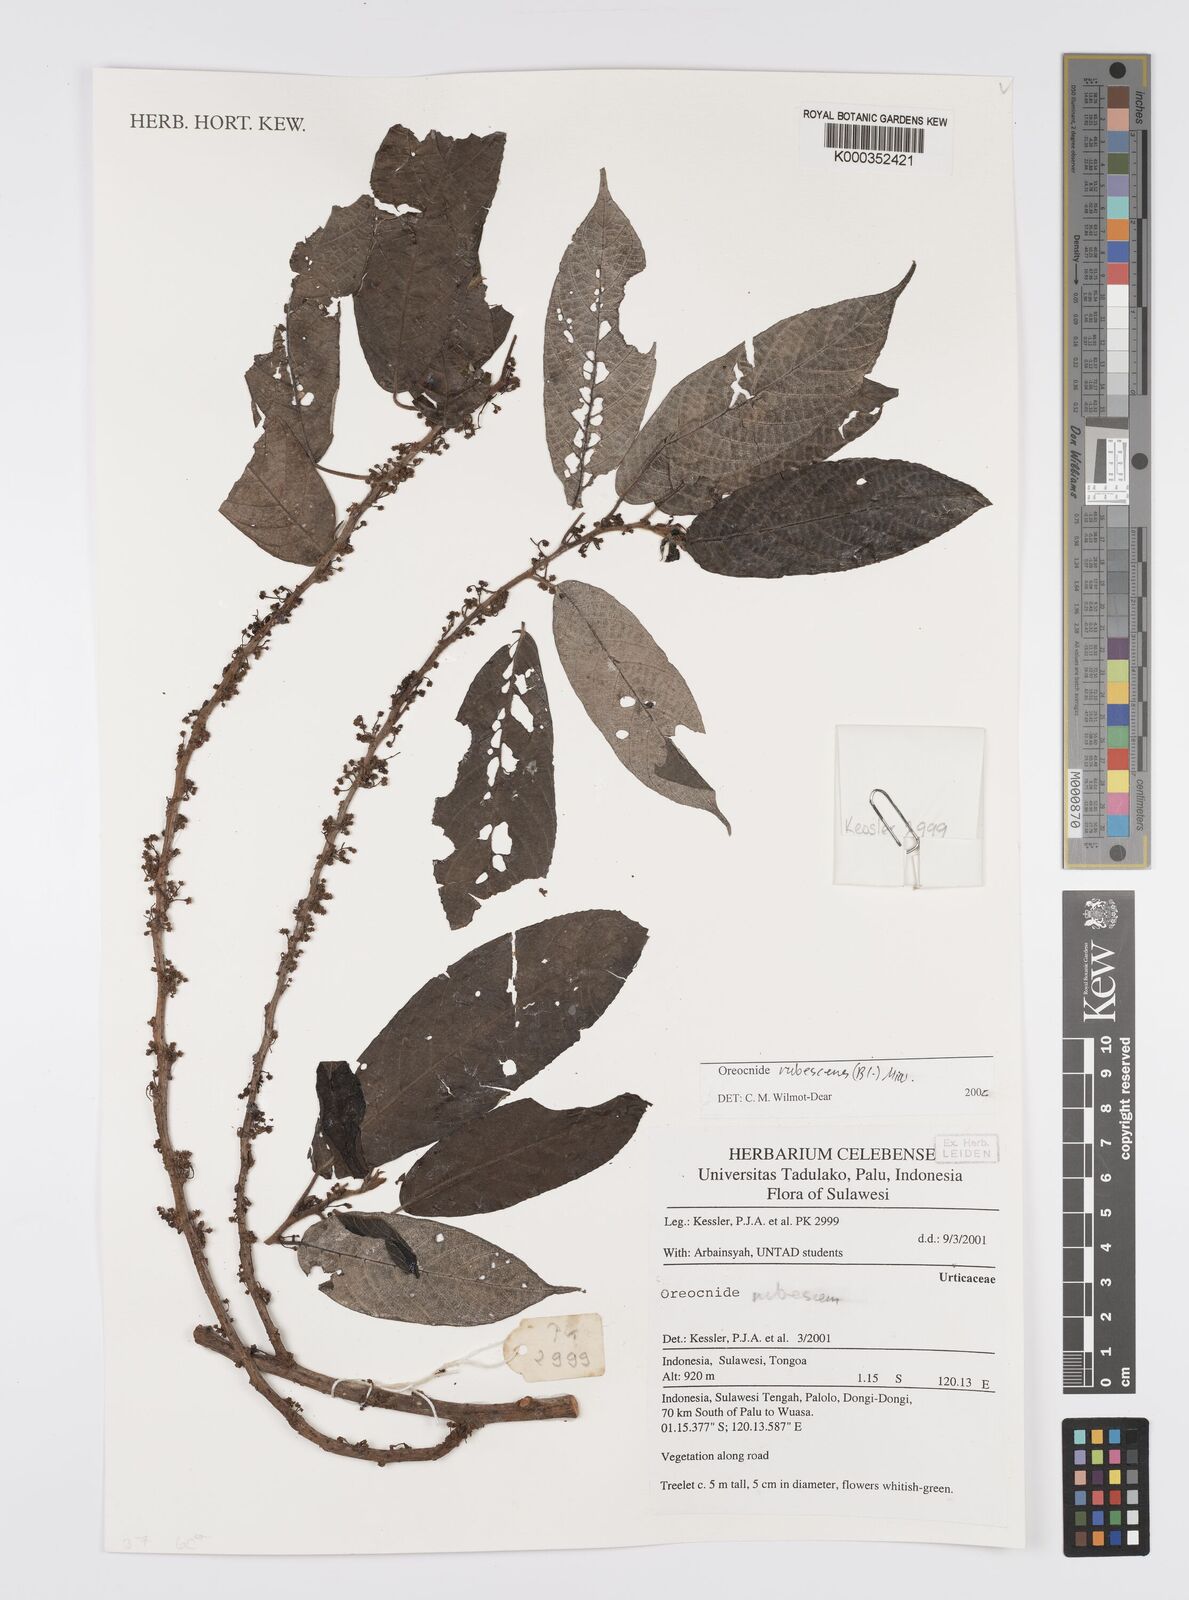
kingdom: Plantae
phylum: Tracheophyta
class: Magnoliopsida
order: Rosales
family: Urticaceae
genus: Oreocnide
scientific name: Oreocnide rubescens
